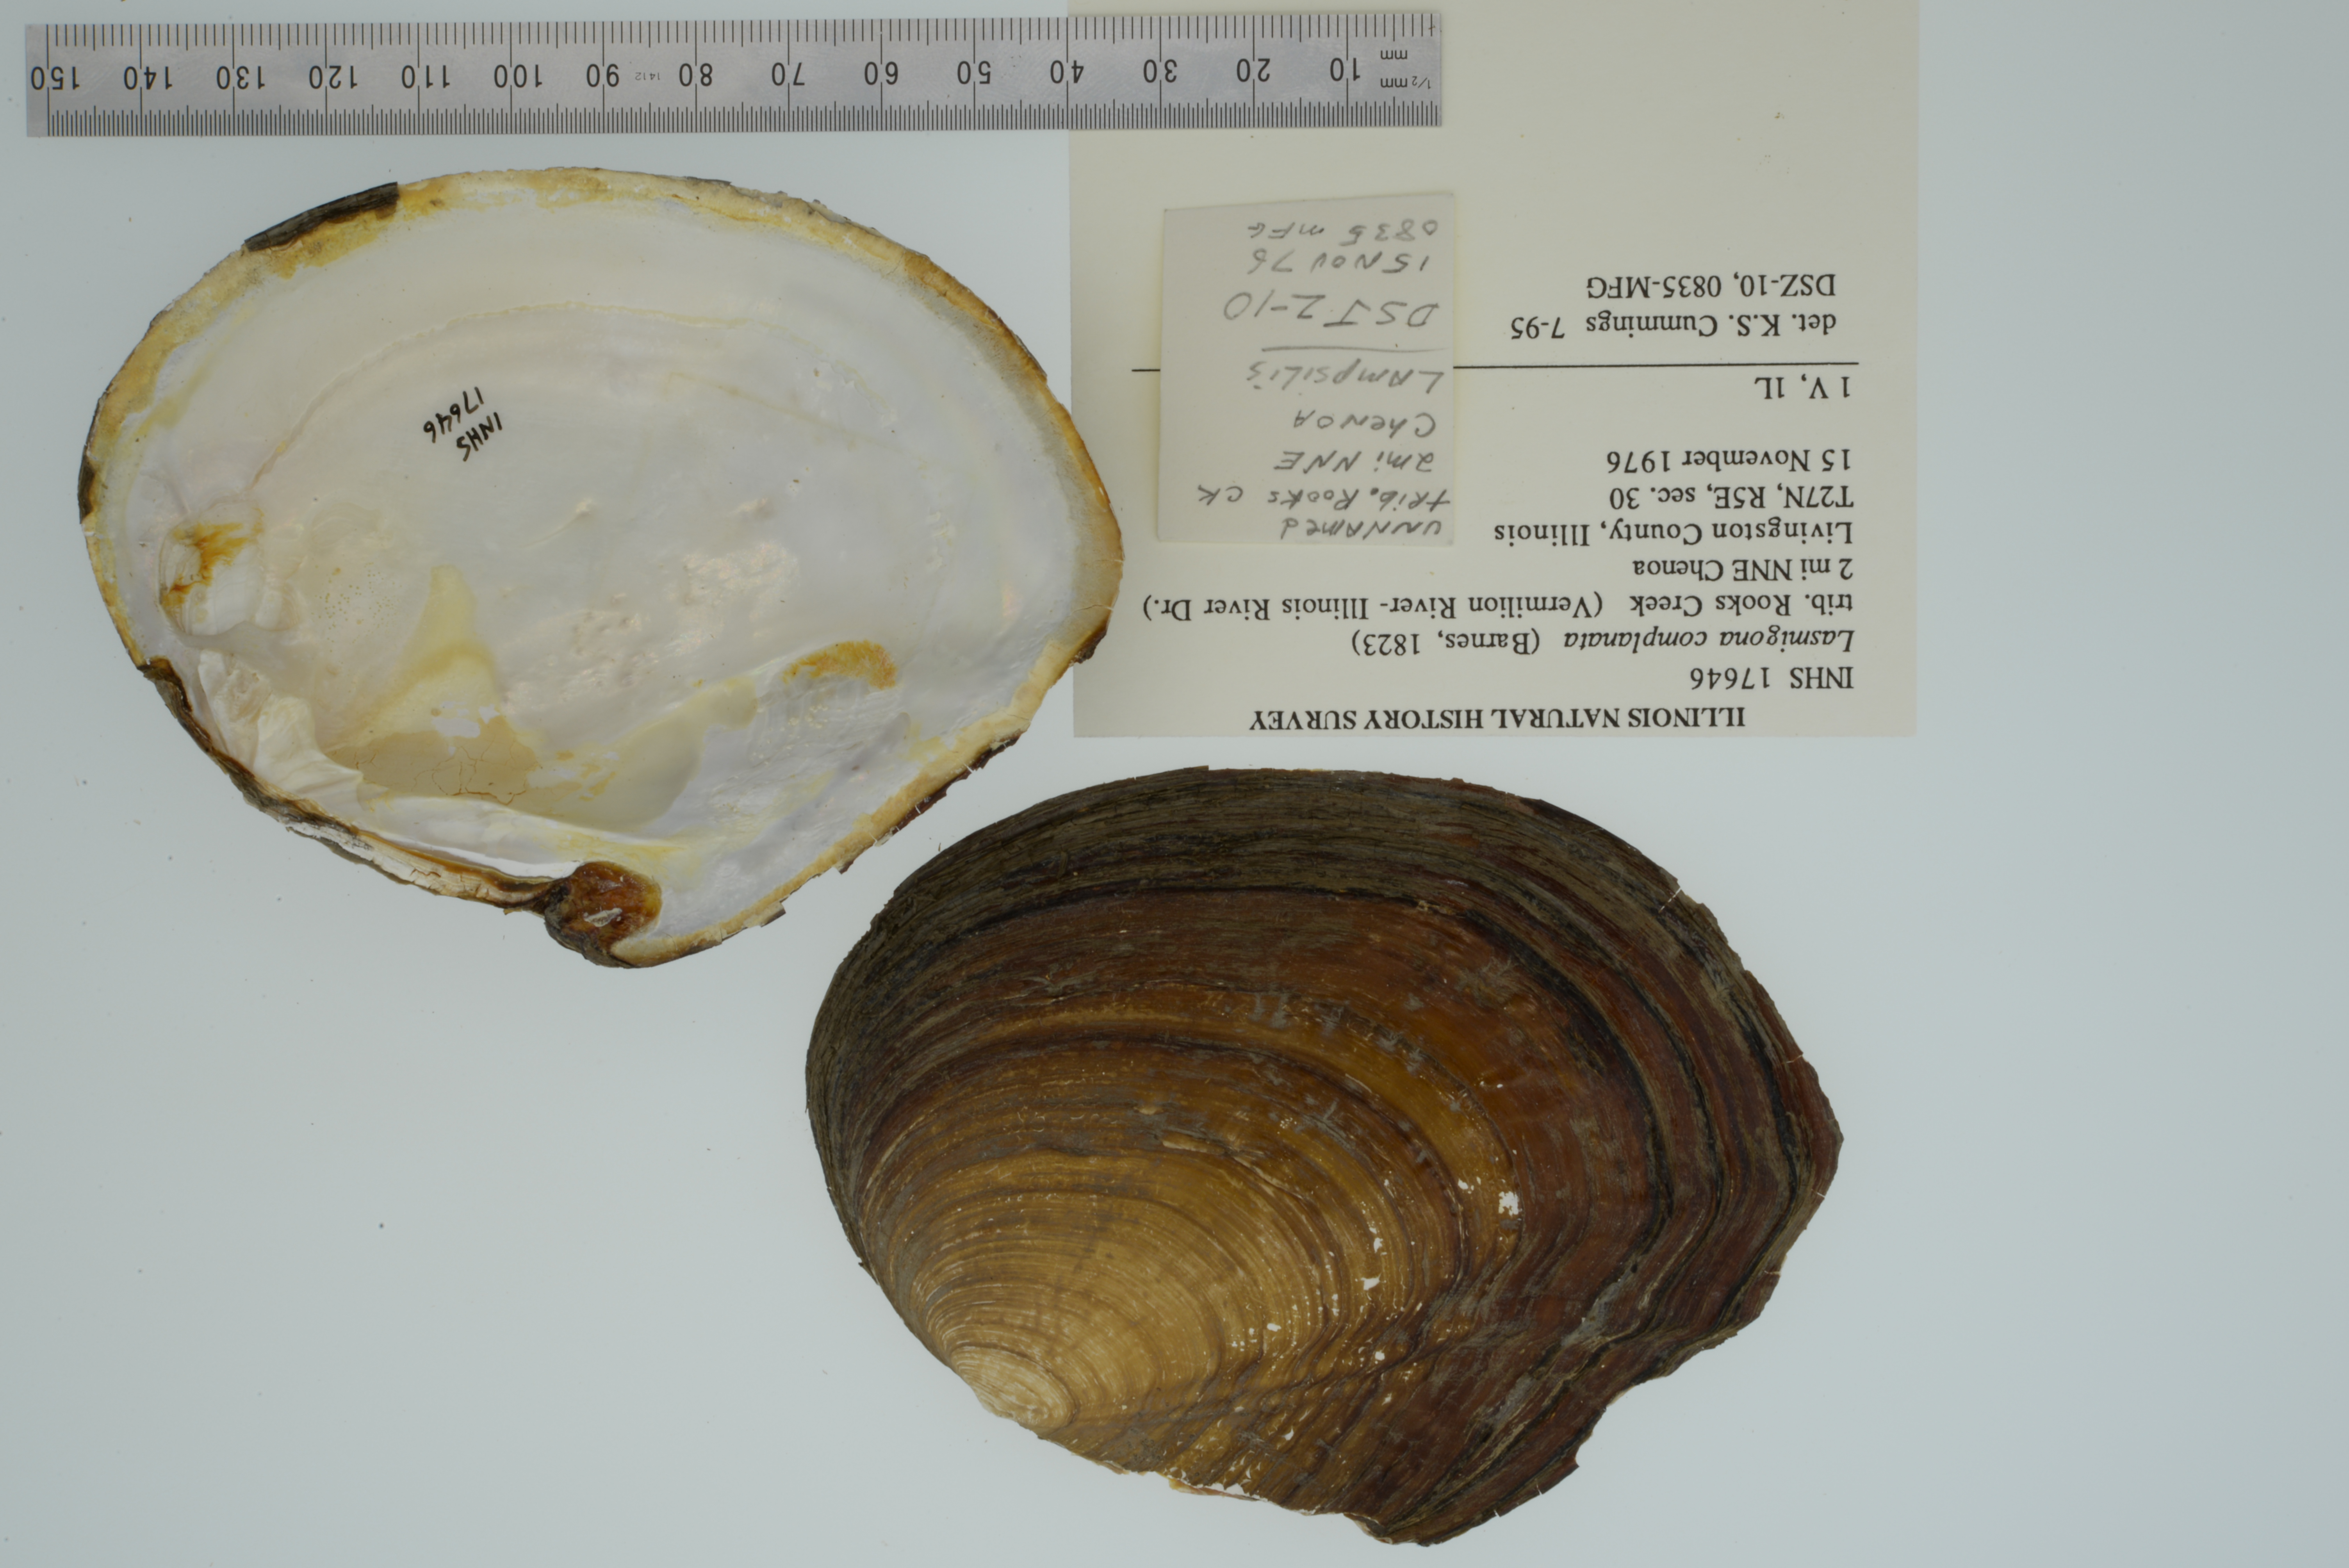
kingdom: Animalia
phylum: Mollusca
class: Bivalvia
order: Unionida
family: Unionidae
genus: Lasmigona
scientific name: Lasmigona complanata
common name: White heelsplitter
